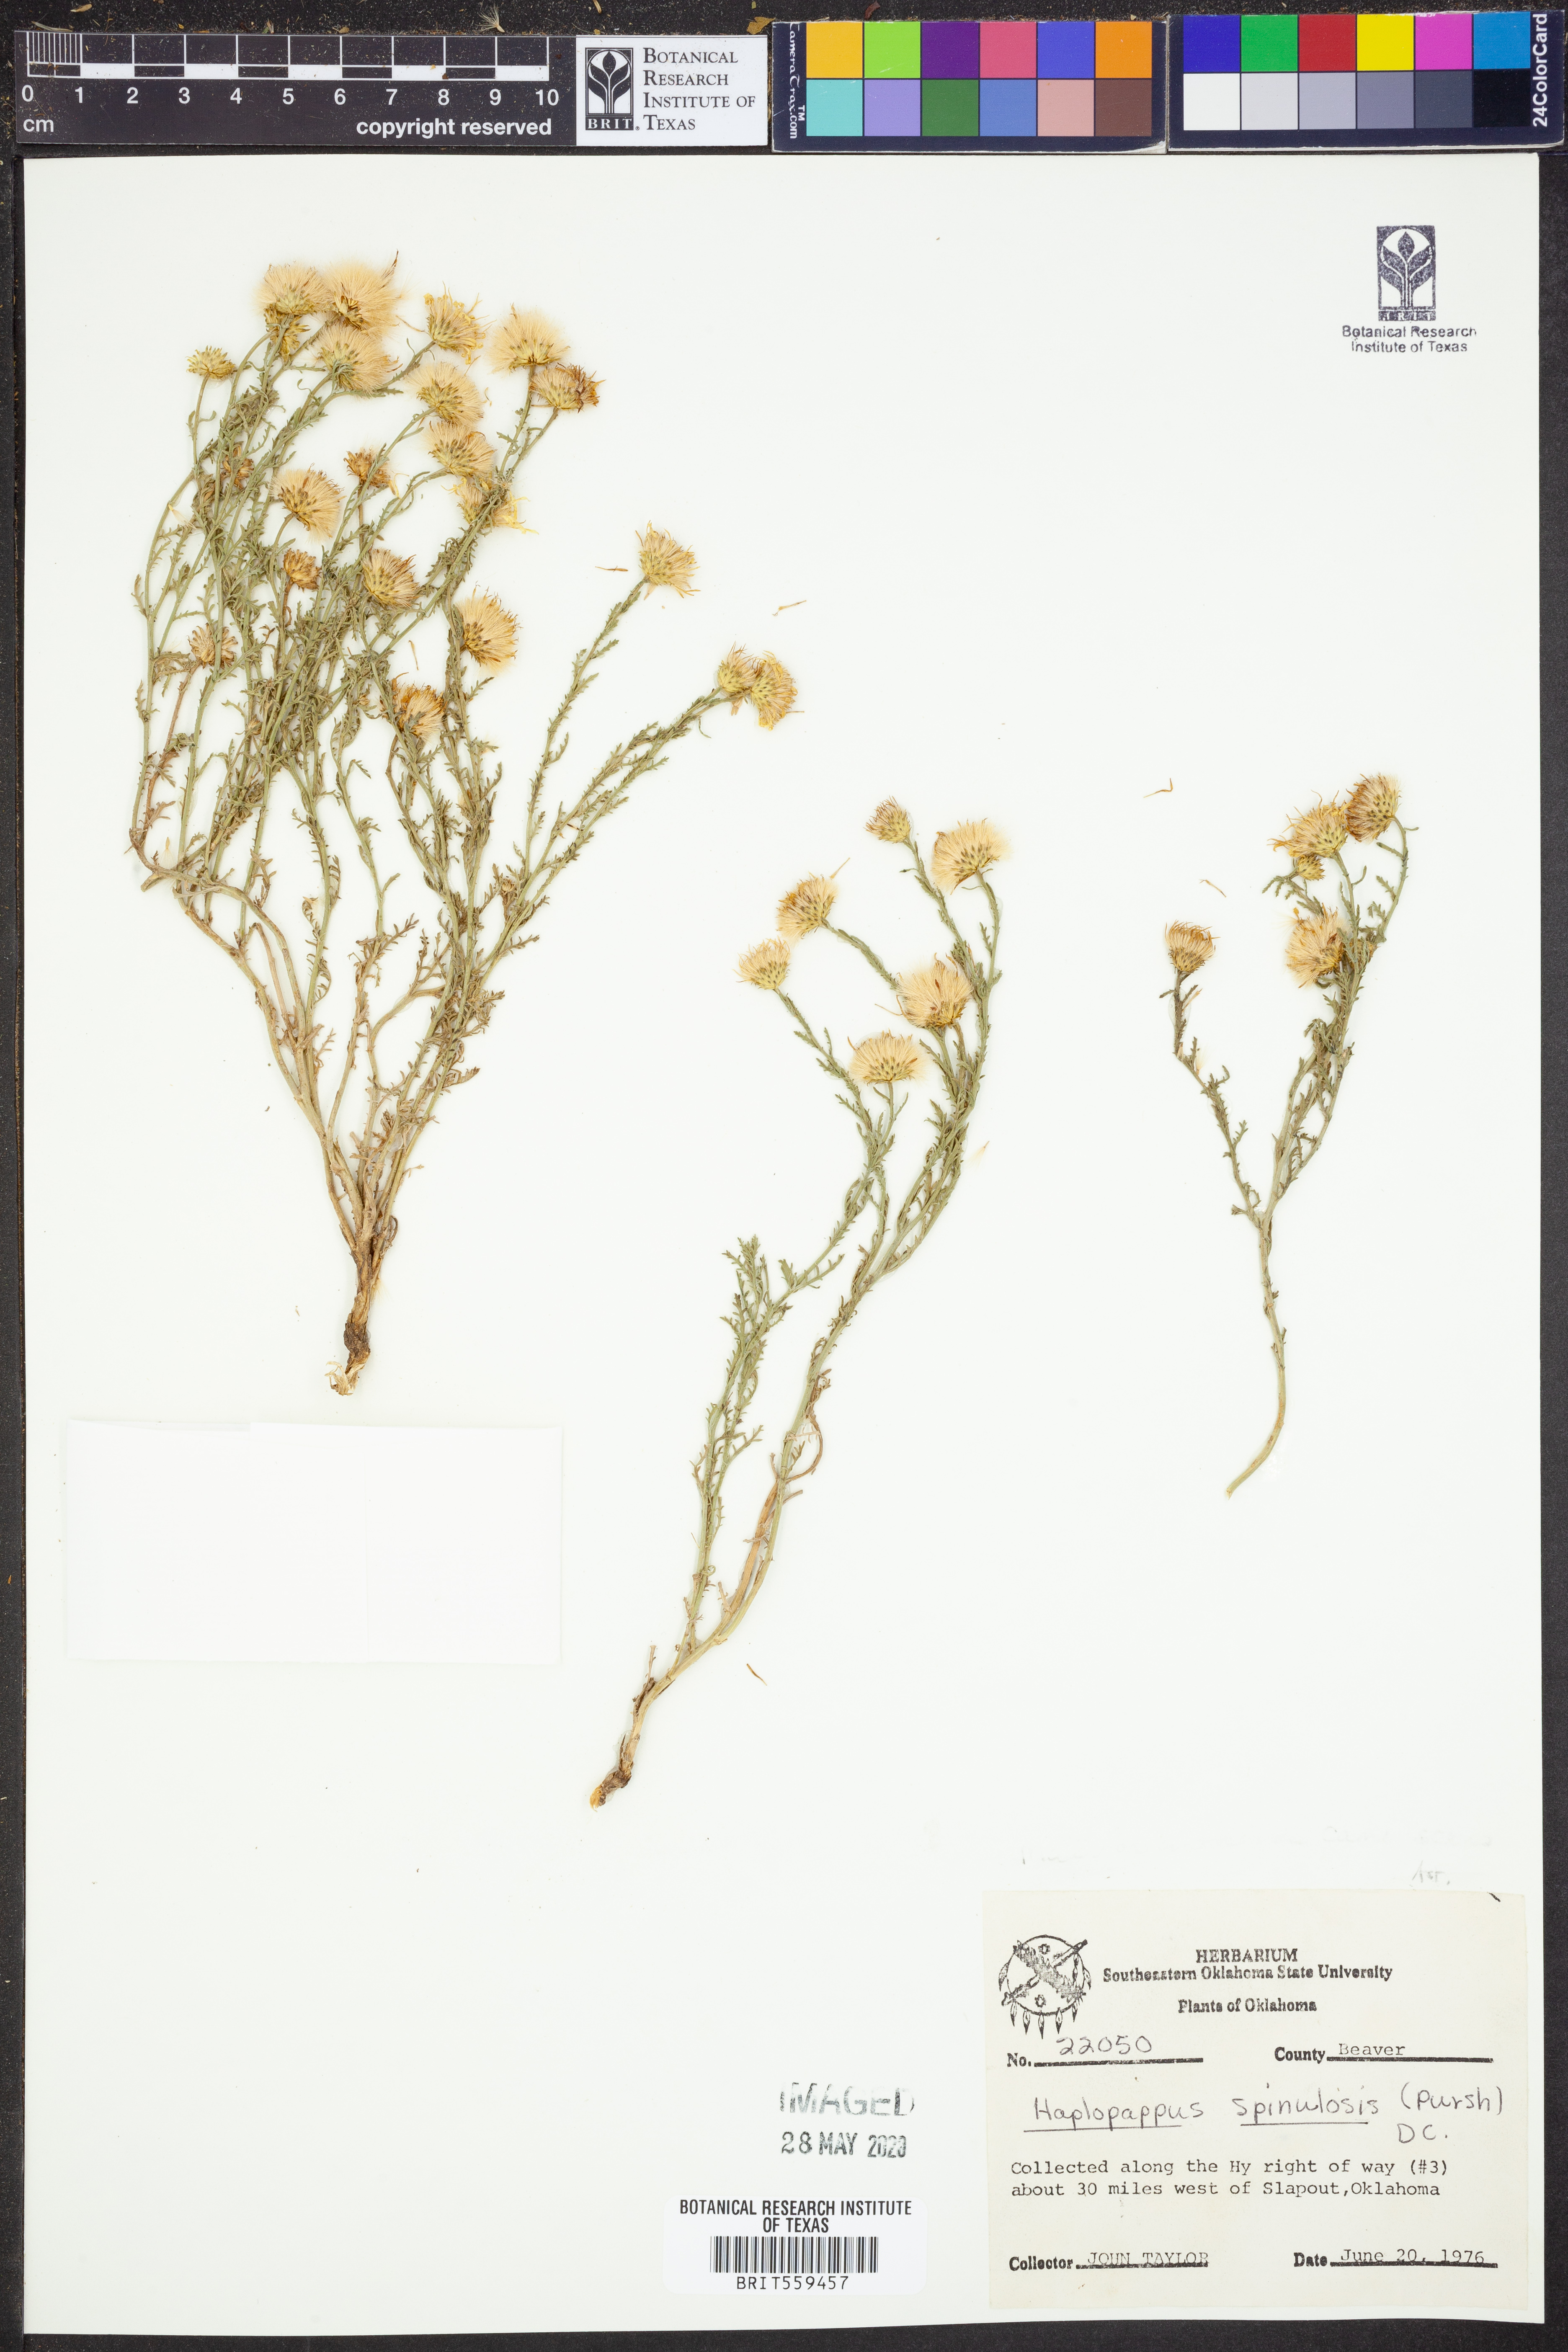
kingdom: Plantae
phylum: Tracheophyta
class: Magnoliopsida
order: Asterales
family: Asteraceae
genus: Xanthisma
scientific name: Xanthisma spinulosum
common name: Spiny goldenweed
